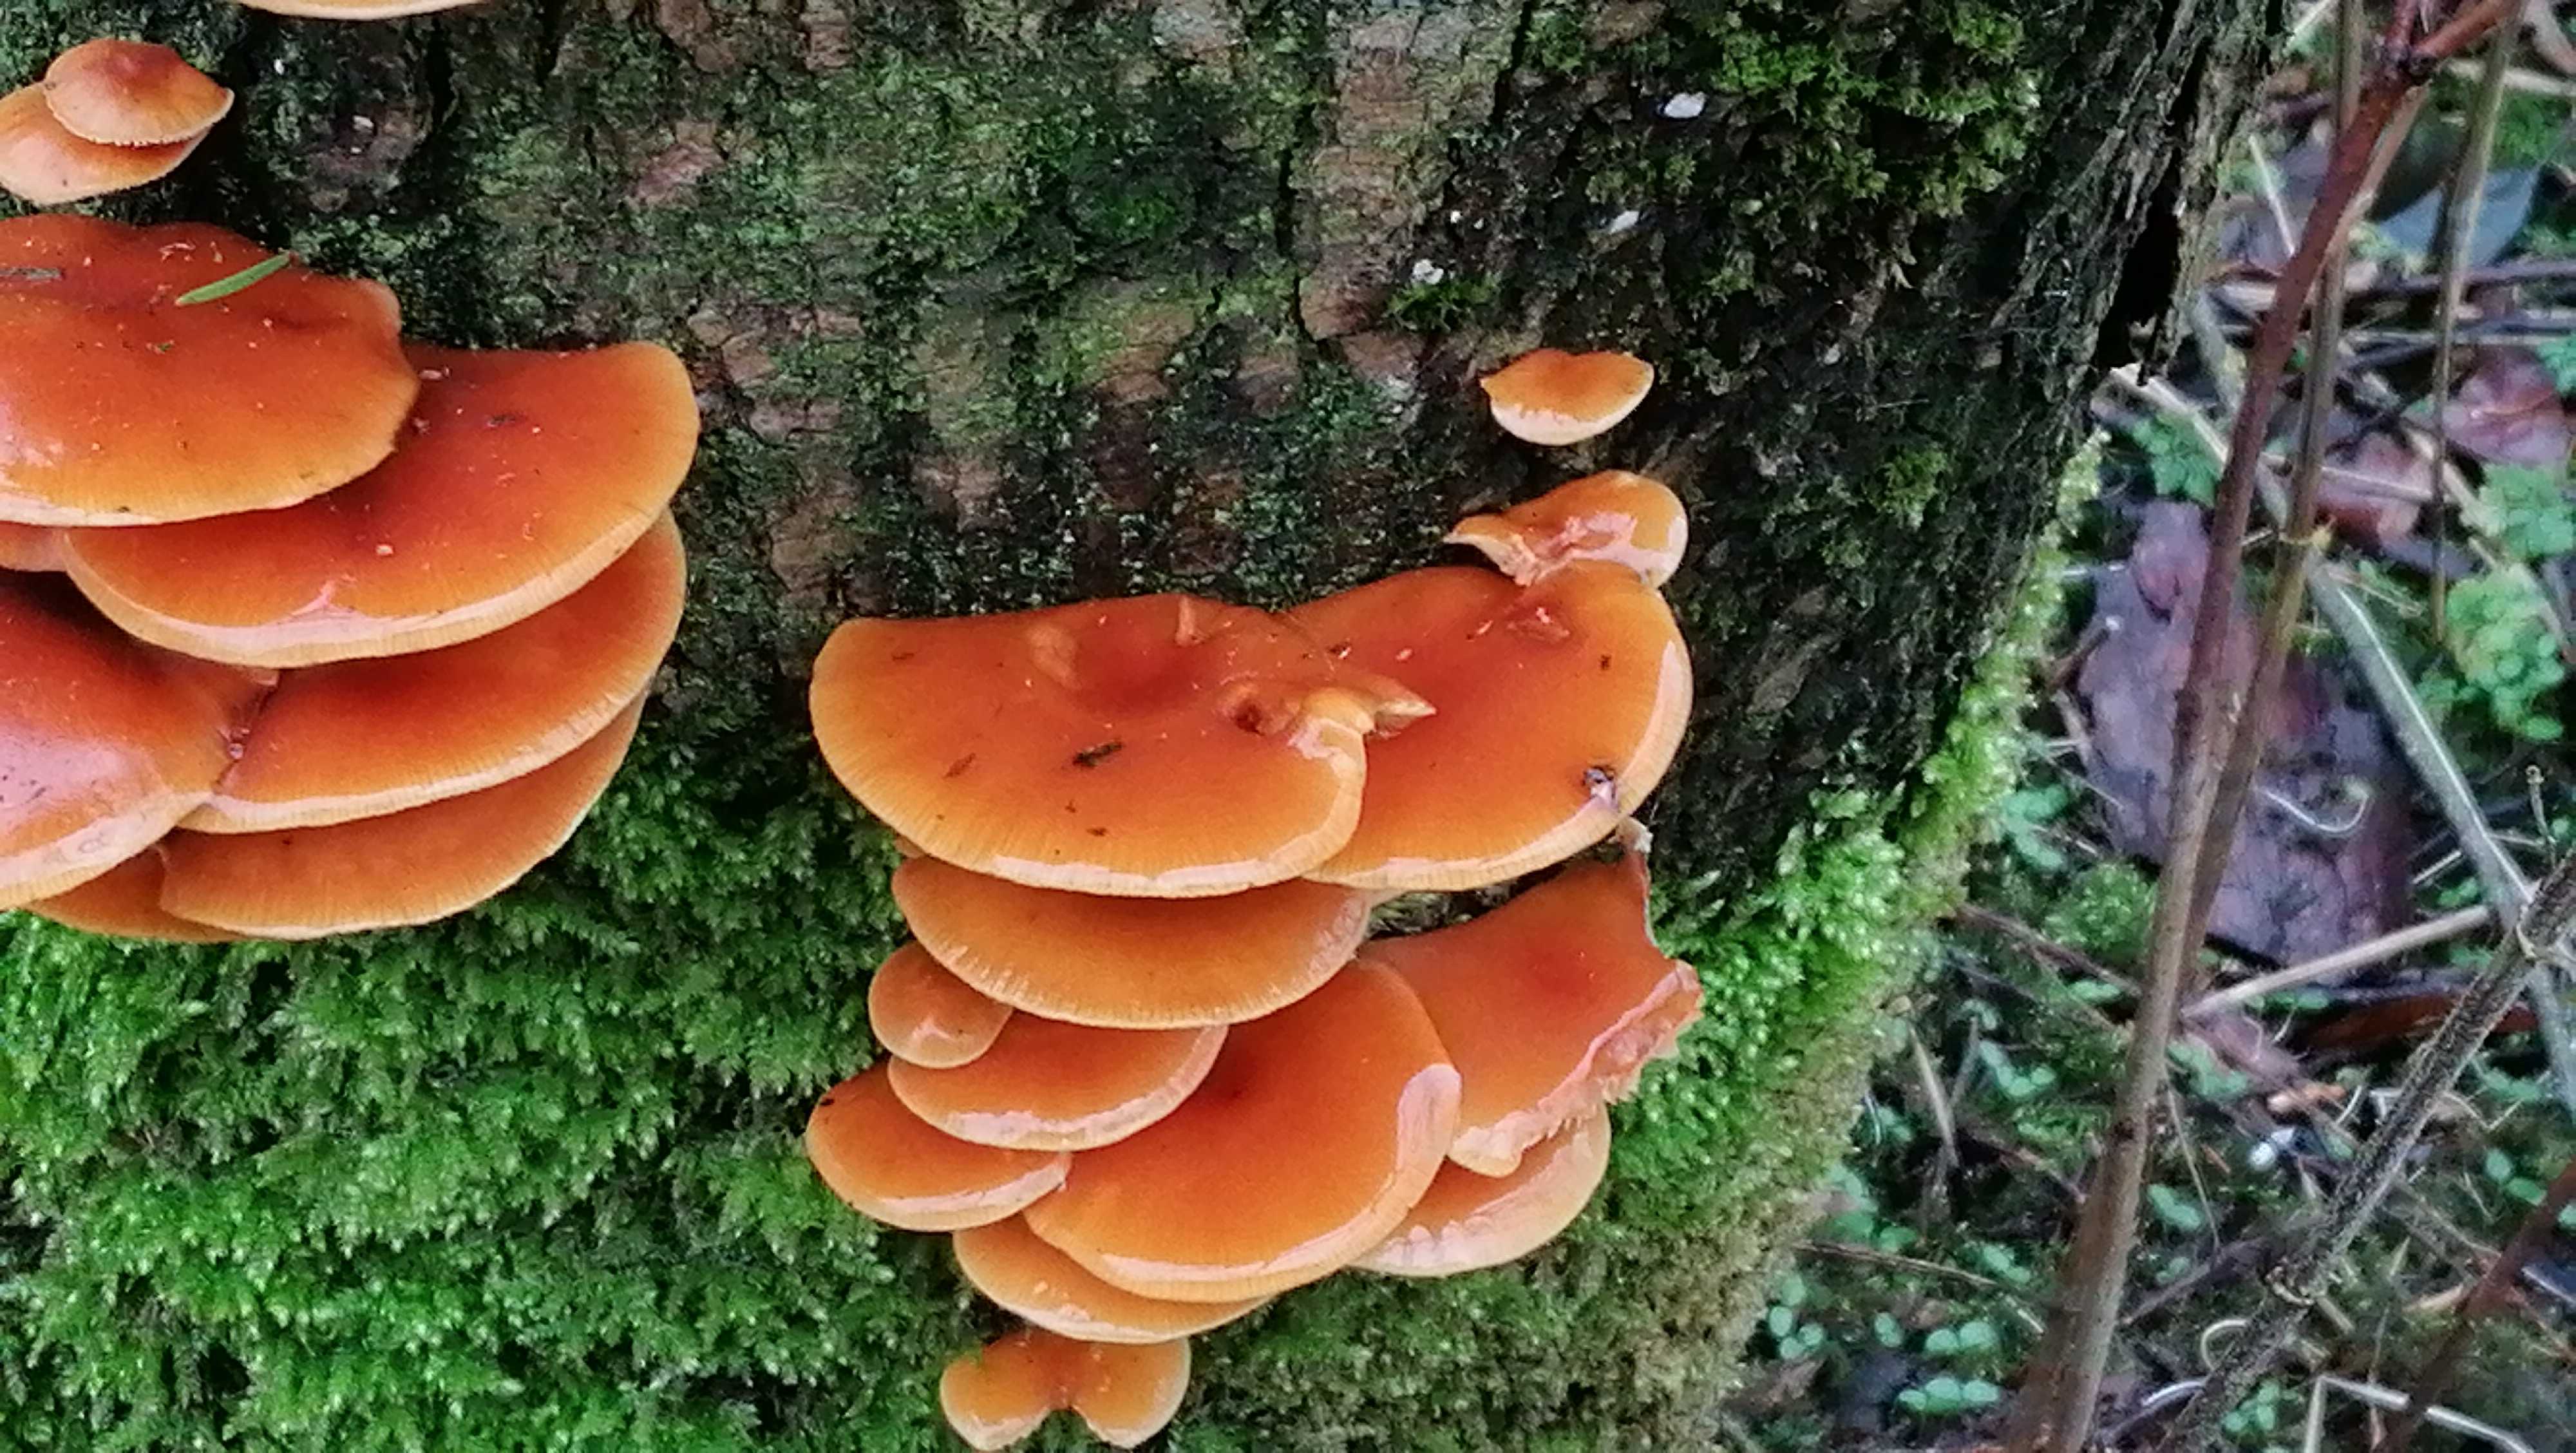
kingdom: Fungi
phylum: Basidiomycota
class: Agaricomycetes
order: Agaricales
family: Physalacriaceae
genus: Flammulina
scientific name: Flammulina velutipes
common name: gul fløjlsfod
